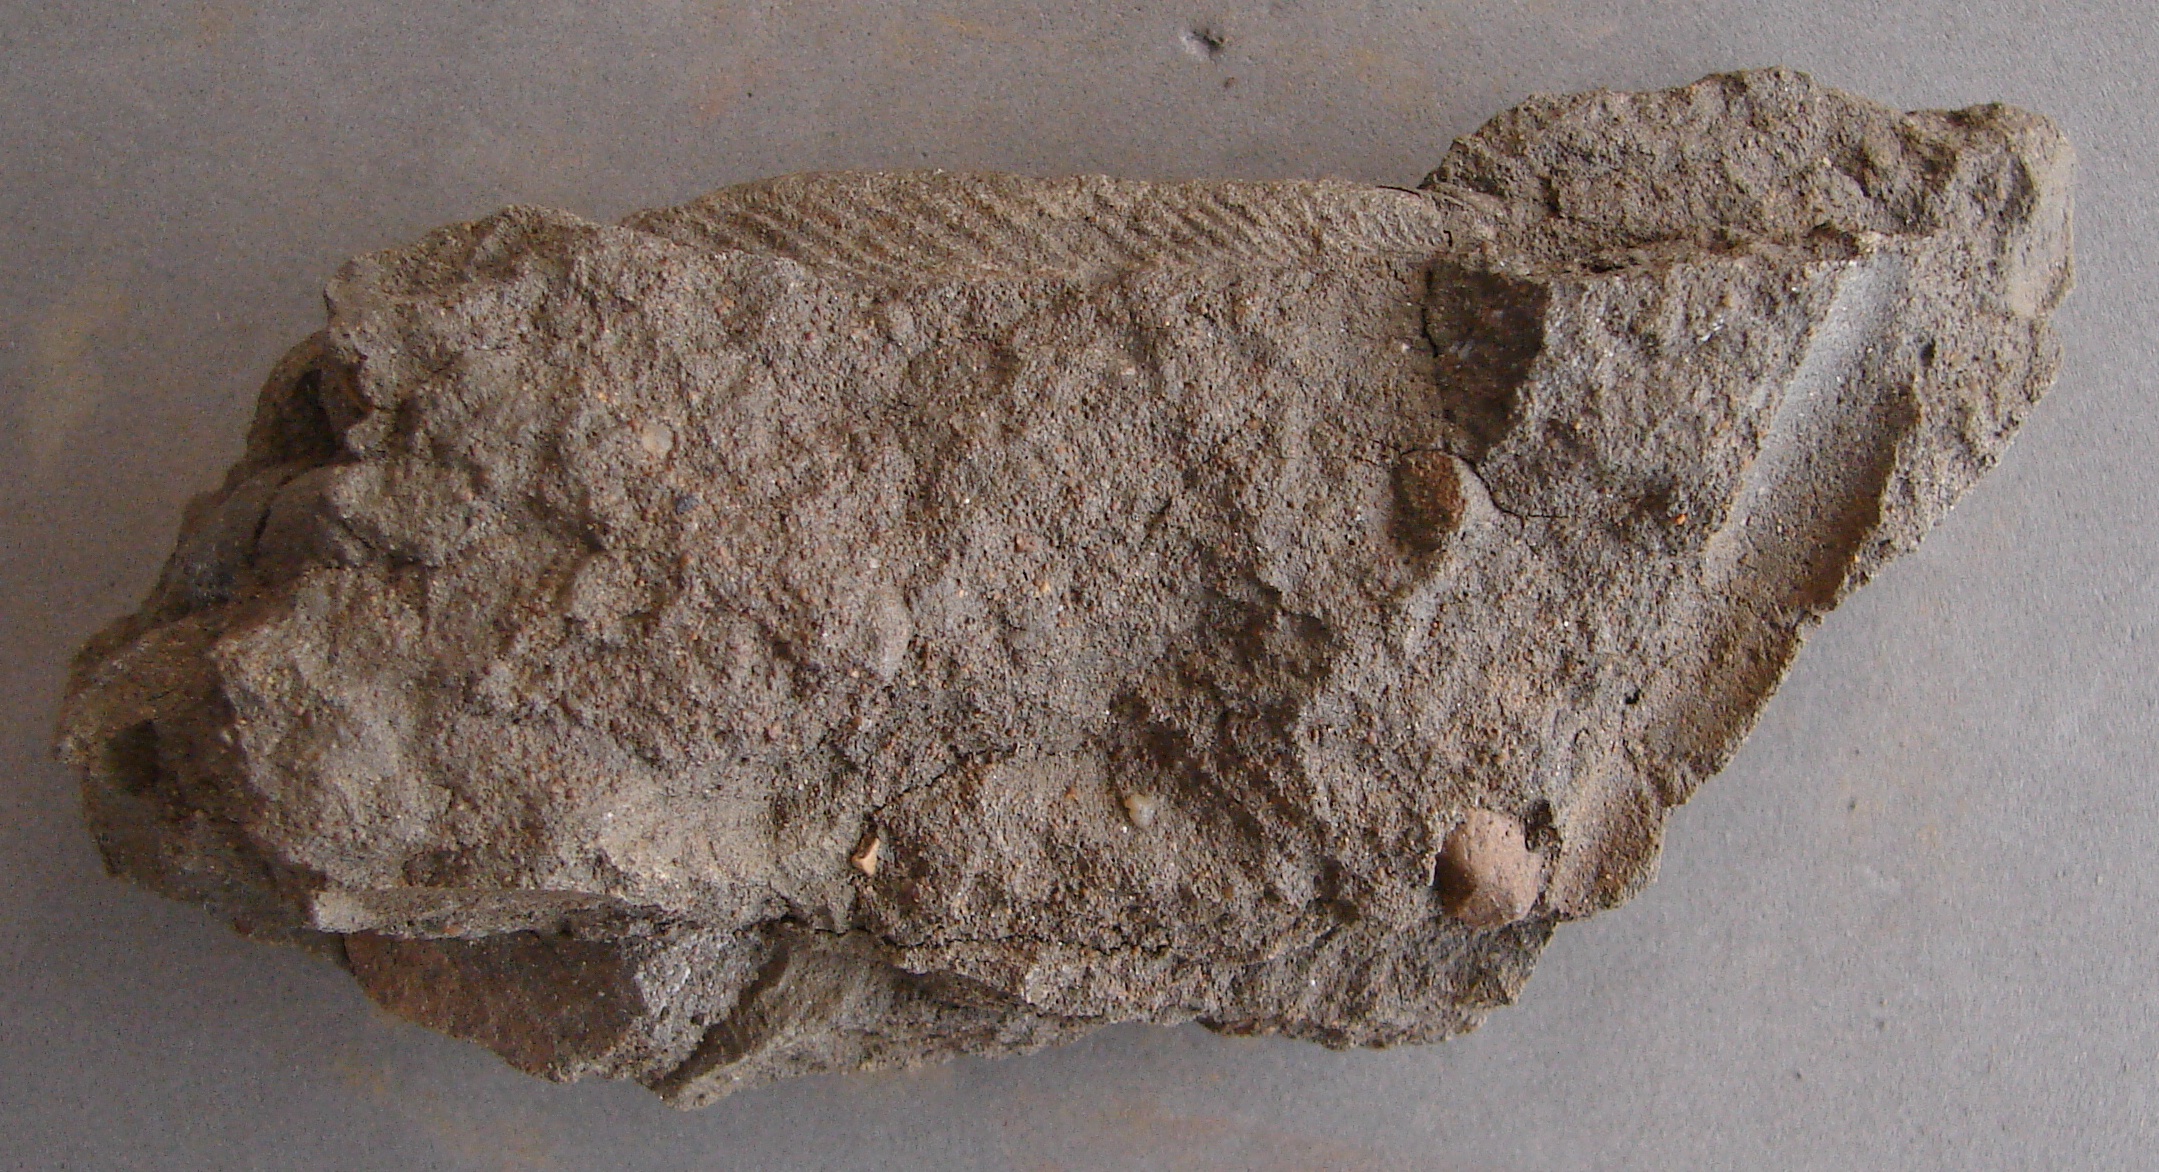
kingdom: Animalia
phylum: Mollusca
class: Bivalvia
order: Mytilida
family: Mytilidae
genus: Inoperna
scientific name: Inoperna
